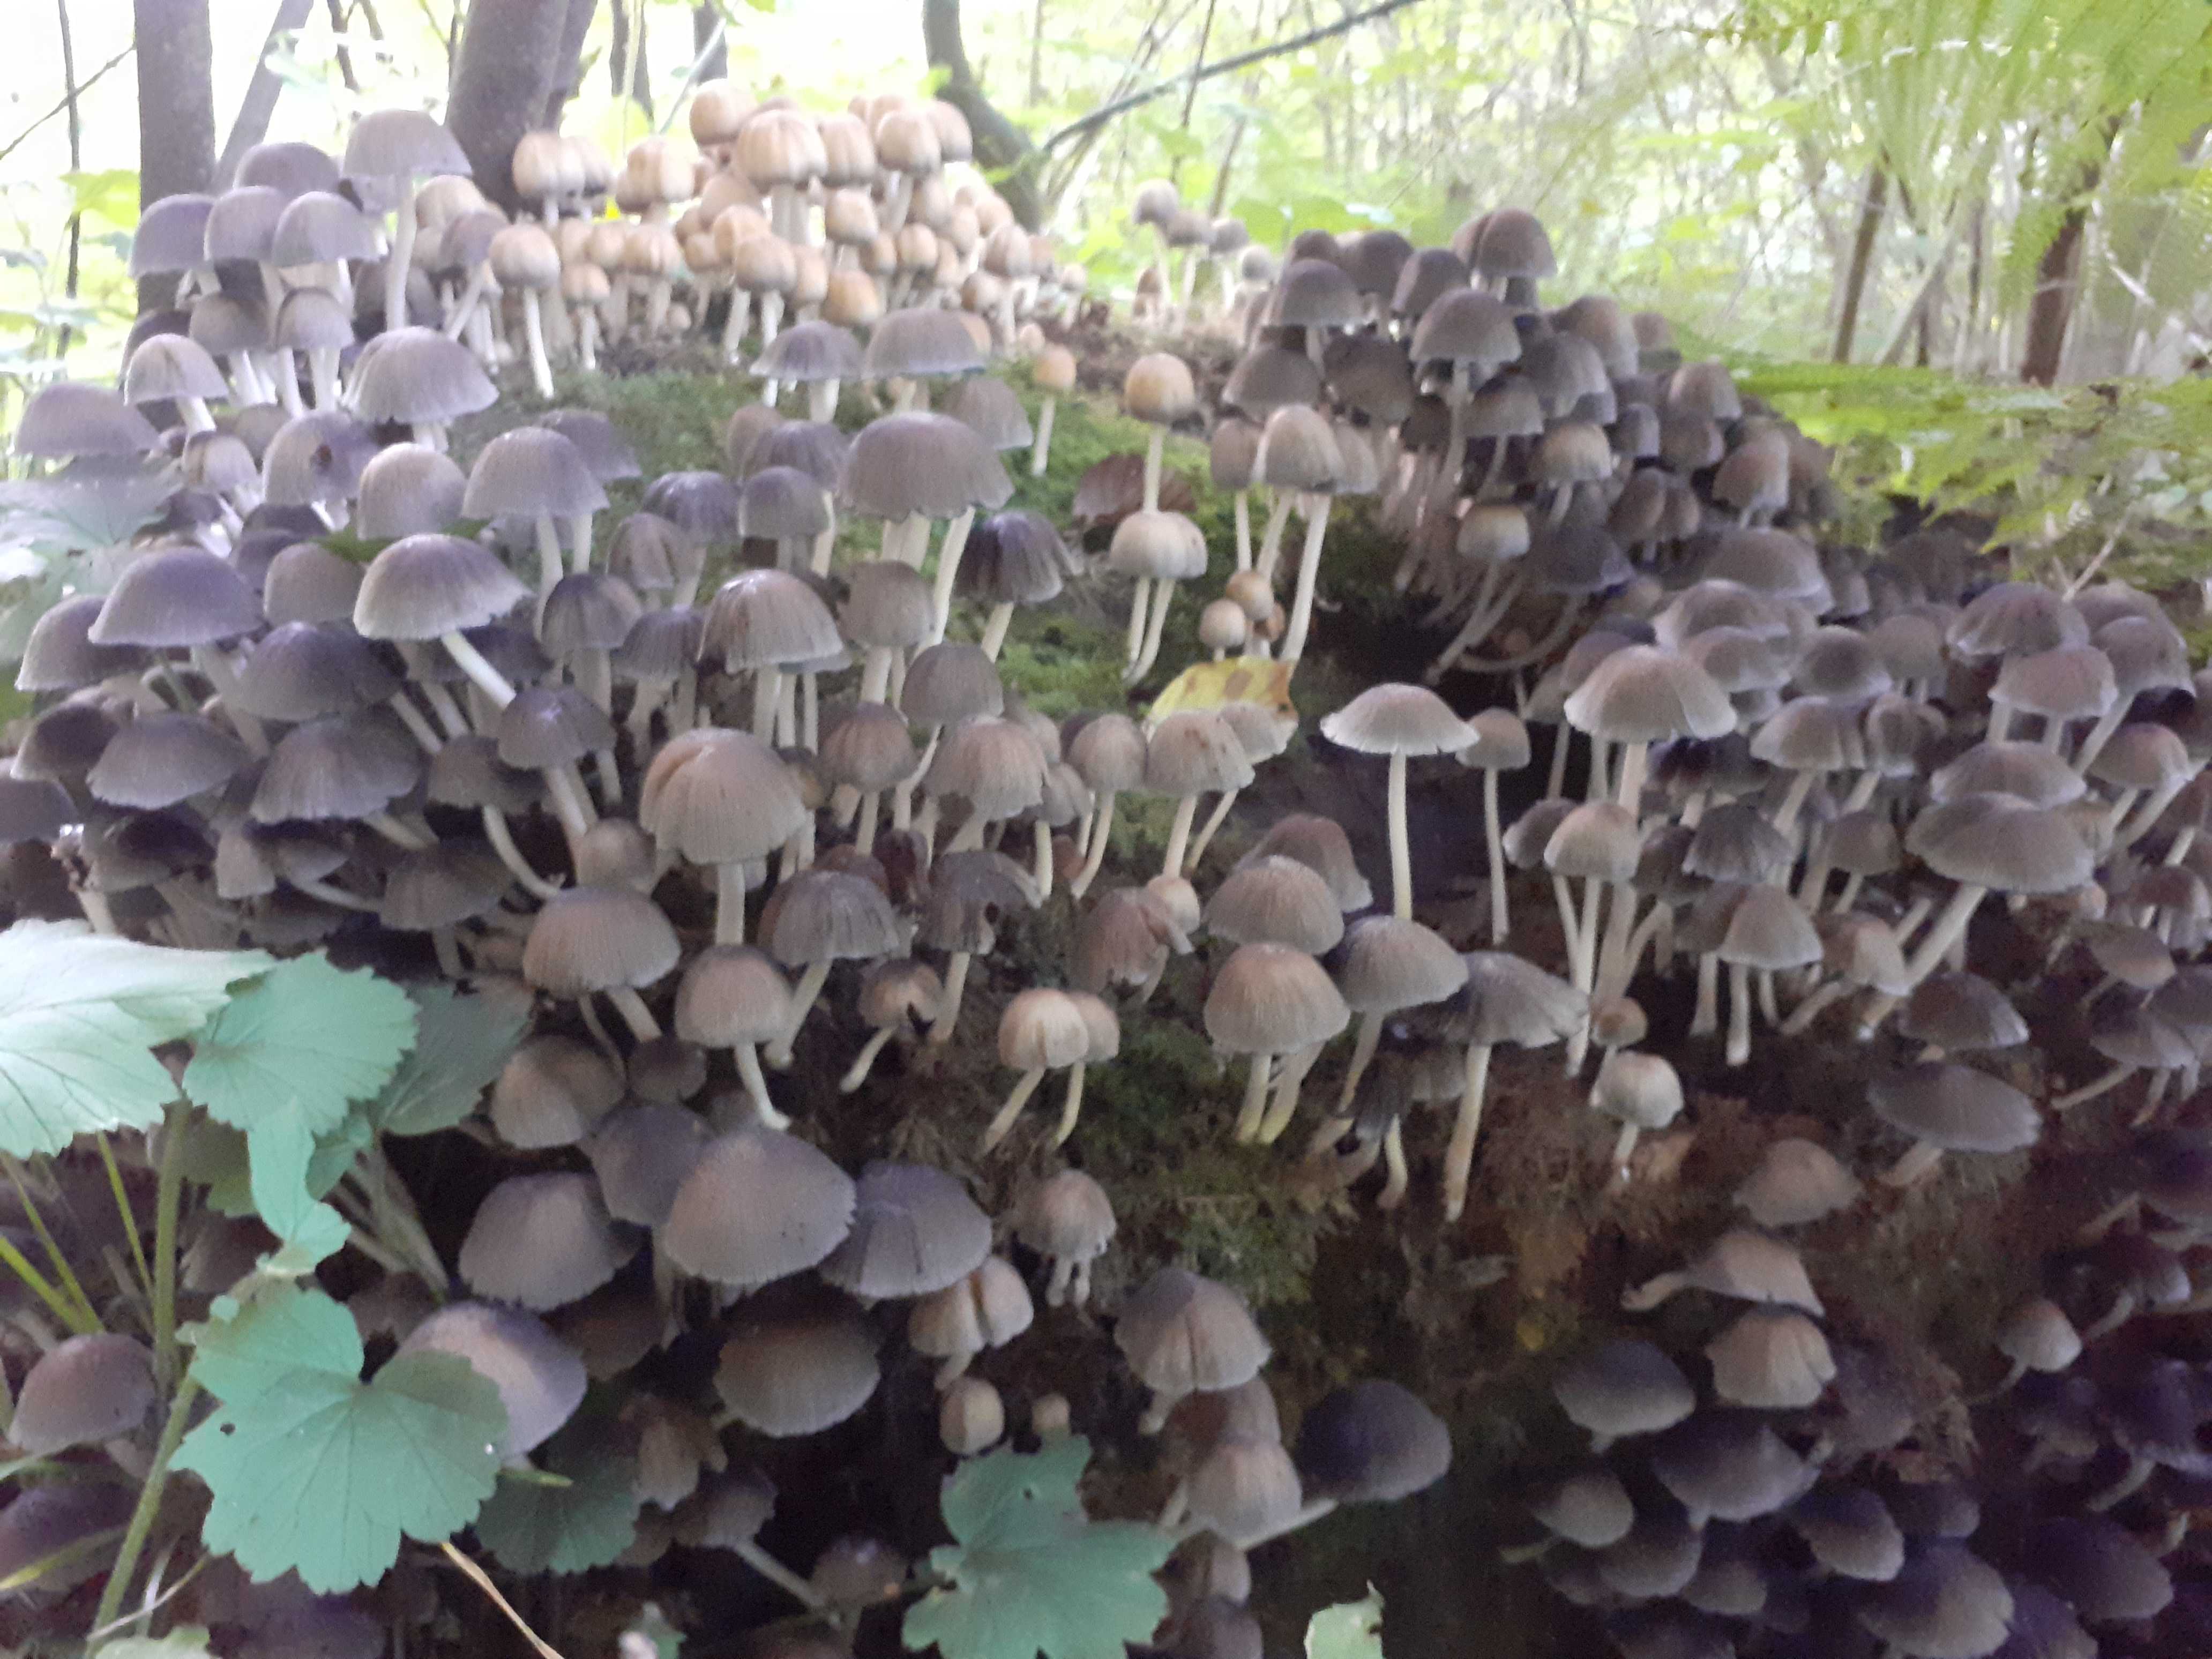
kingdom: Fungi
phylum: Basidiomycota
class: Agaricomycetes
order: Agaricales
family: Psathyrellaceae
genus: Coprinellus
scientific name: Coprinellus micaceus
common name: glimmer-blækhat
